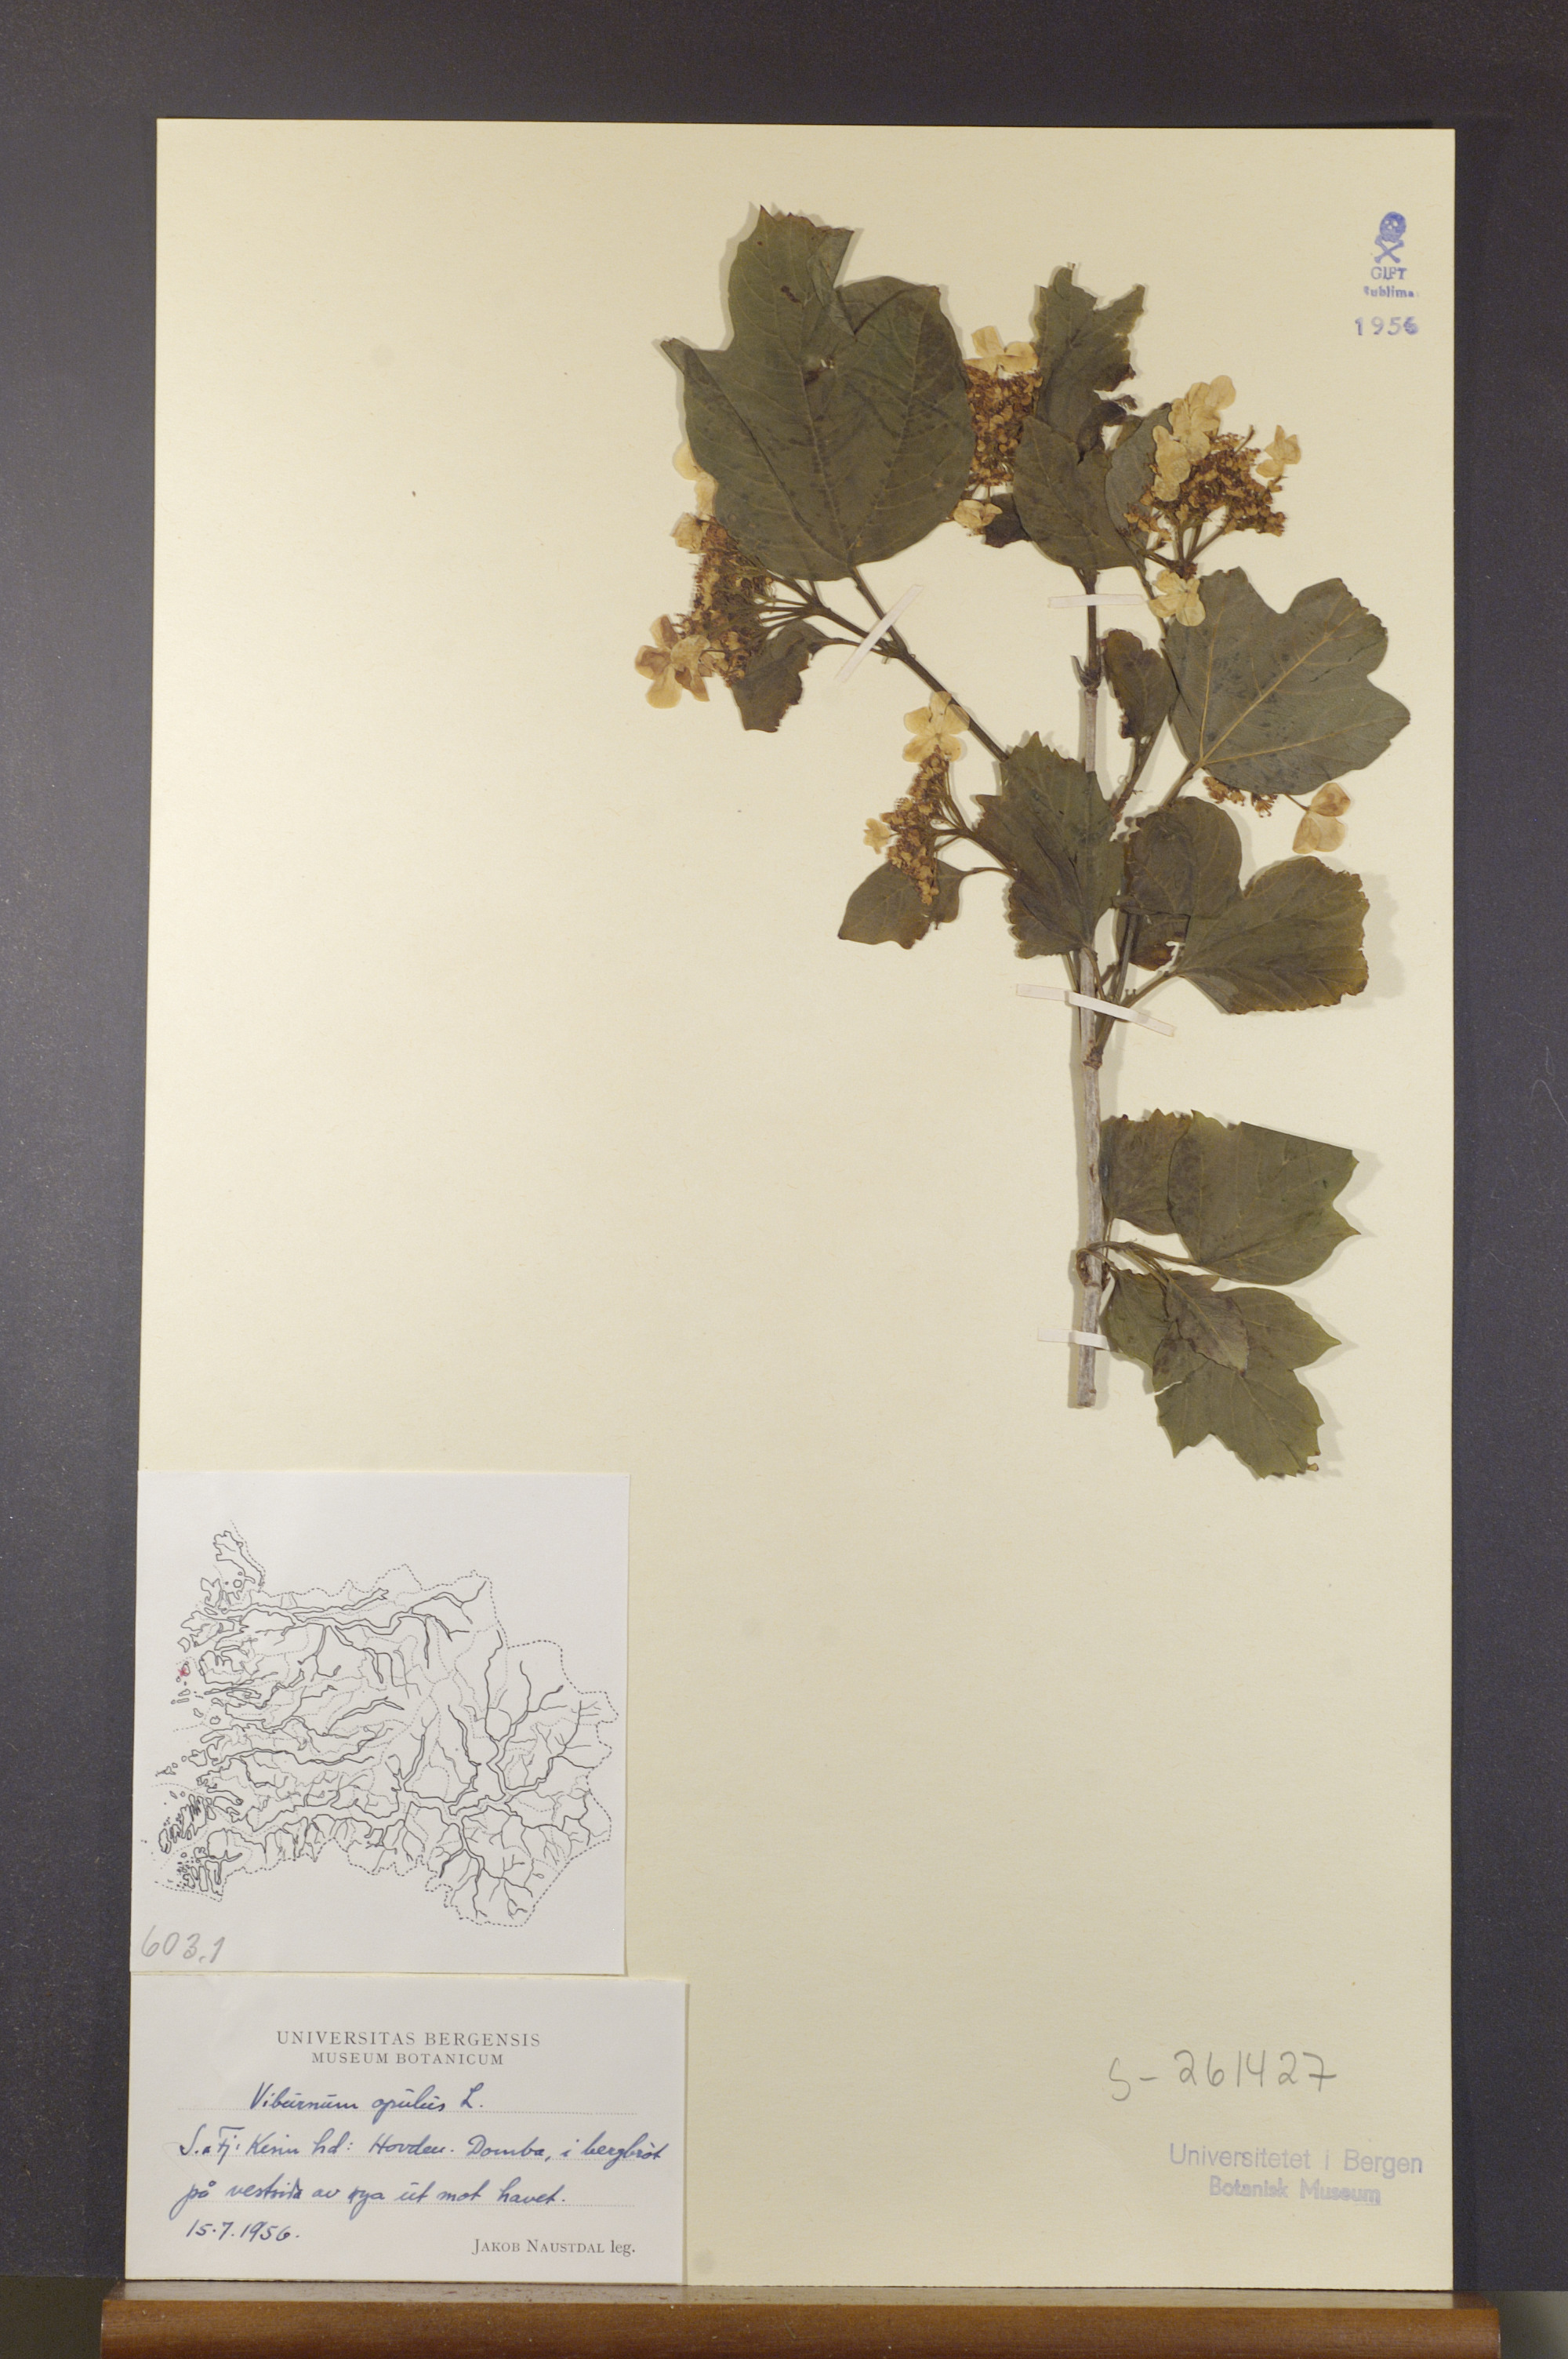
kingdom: Plantae
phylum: Tracheophyta
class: Magnoliopsida
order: Dipsacales
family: Viburnaceae
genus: Viburnum
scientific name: Viburnum opulus
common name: Guelder-rose
